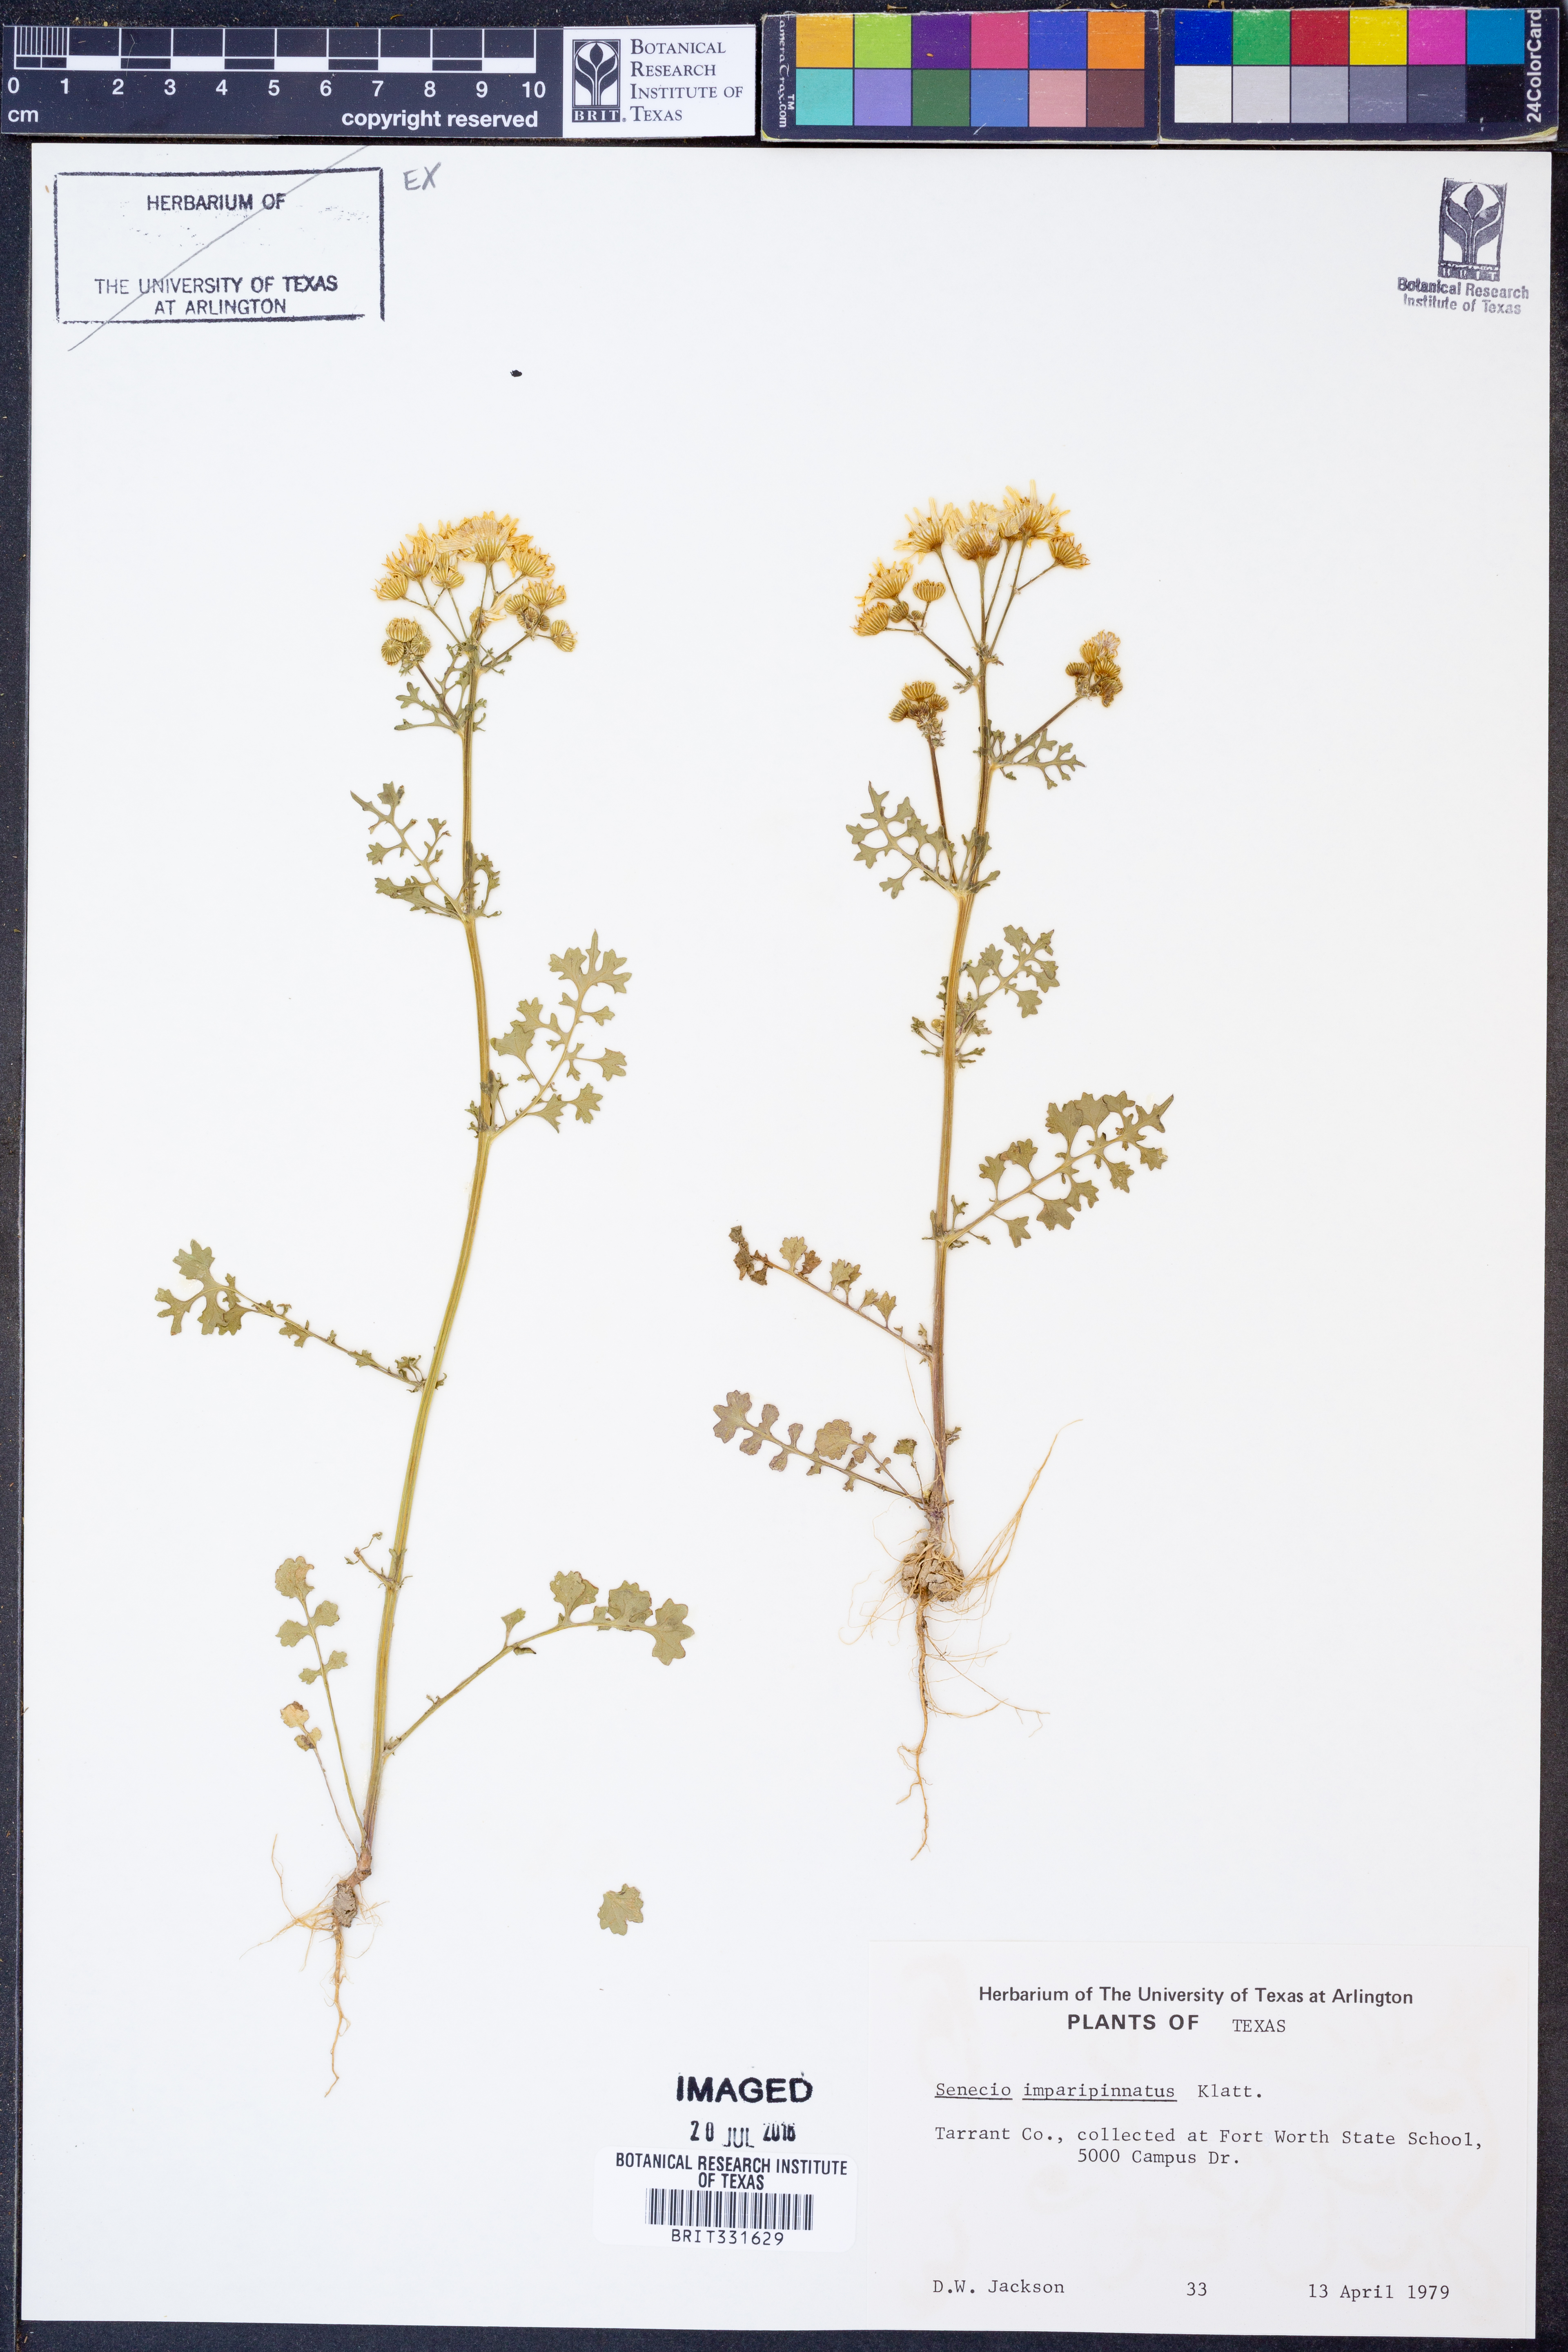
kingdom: Plantae
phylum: Tracheophyta
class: Magnoliopsida
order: Asterales
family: Asteraceae
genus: Packera
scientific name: Packera tampicana
